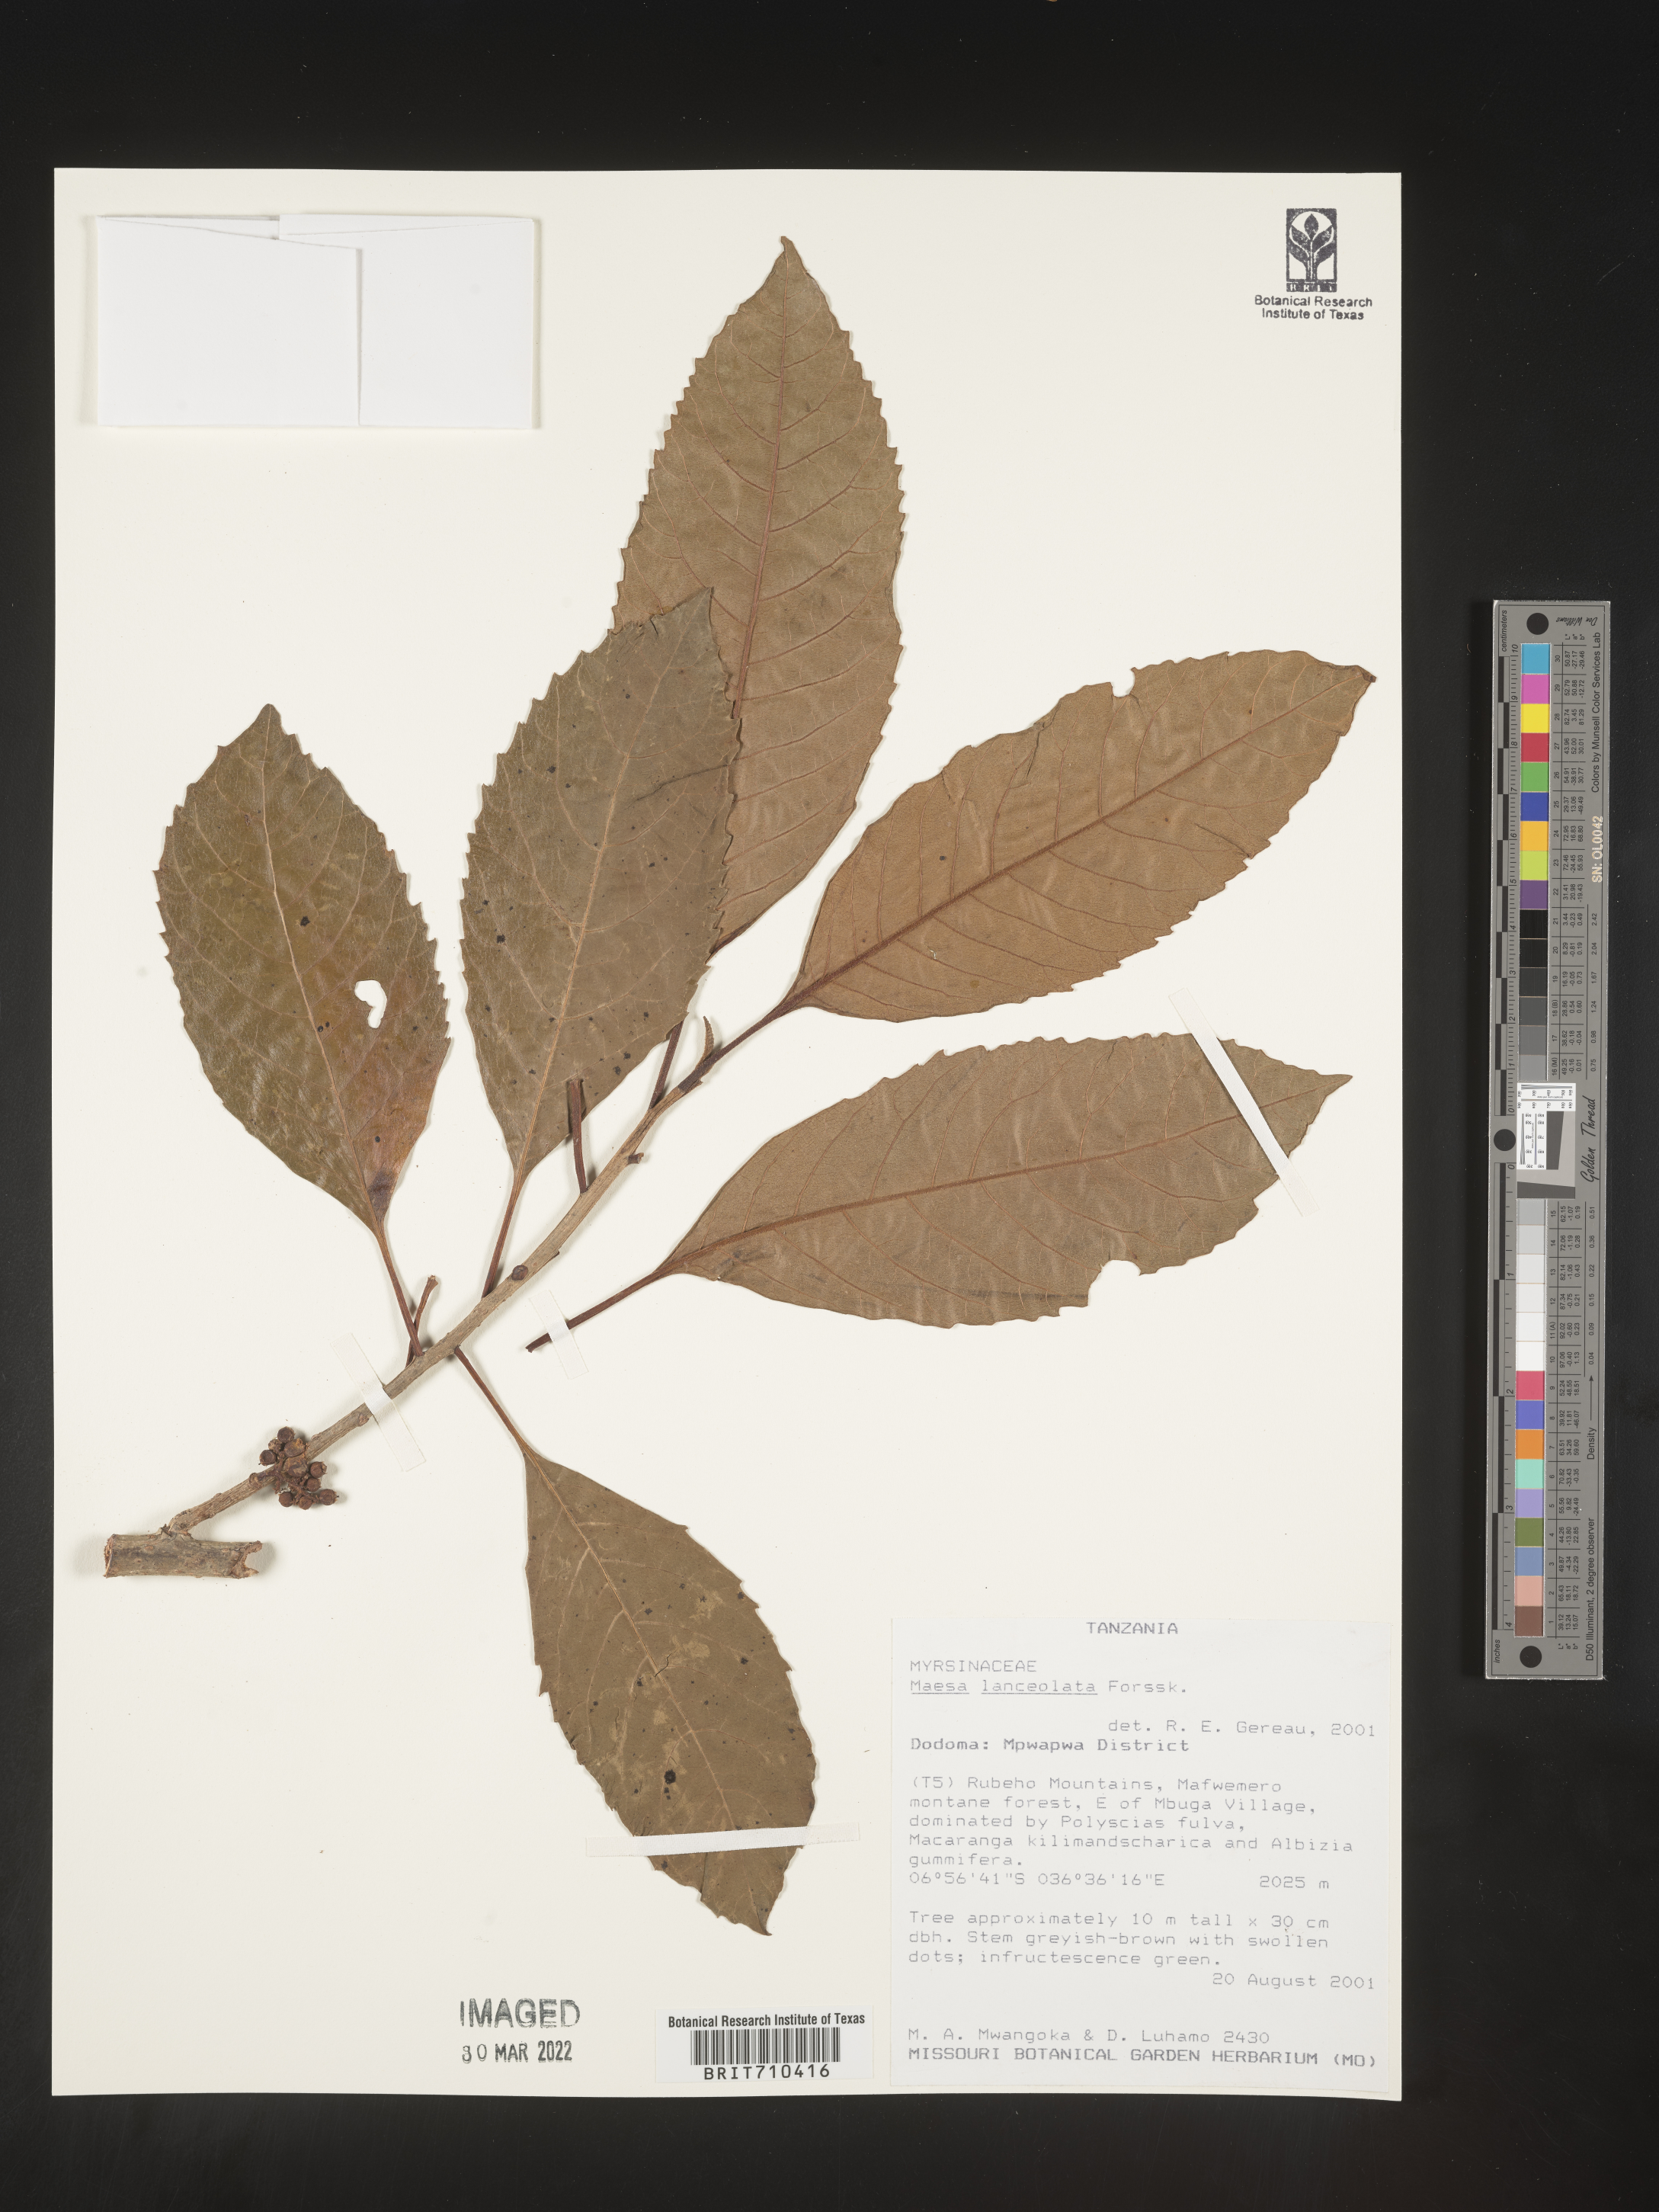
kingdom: Plantae
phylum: Tracheophyta
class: Magnoliopsida
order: Ericales
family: Primulaceae
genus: Maesa
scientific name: Maesa
